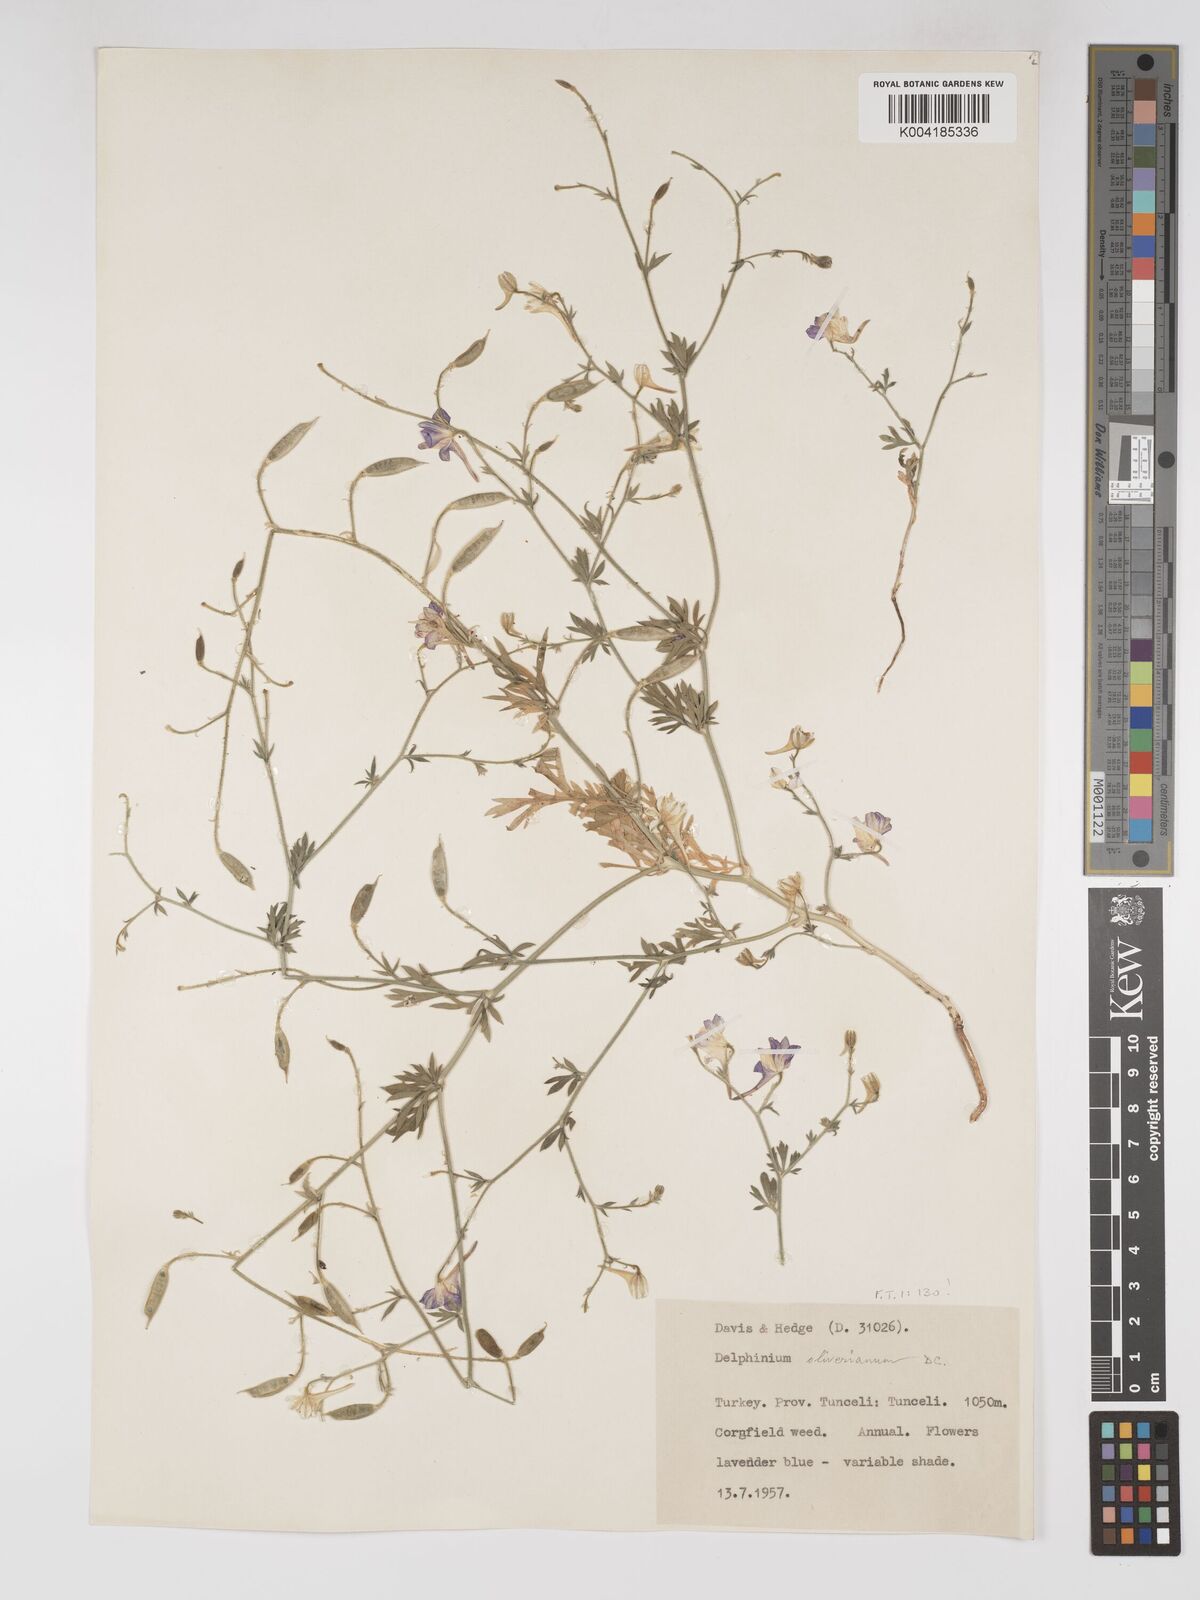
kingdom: Plantae
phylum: Tracheophyta
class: Magnoliopsida
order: Ranunculales
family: Ranunculaceae
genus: Delphinium
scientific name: Delphinium oliverianum
